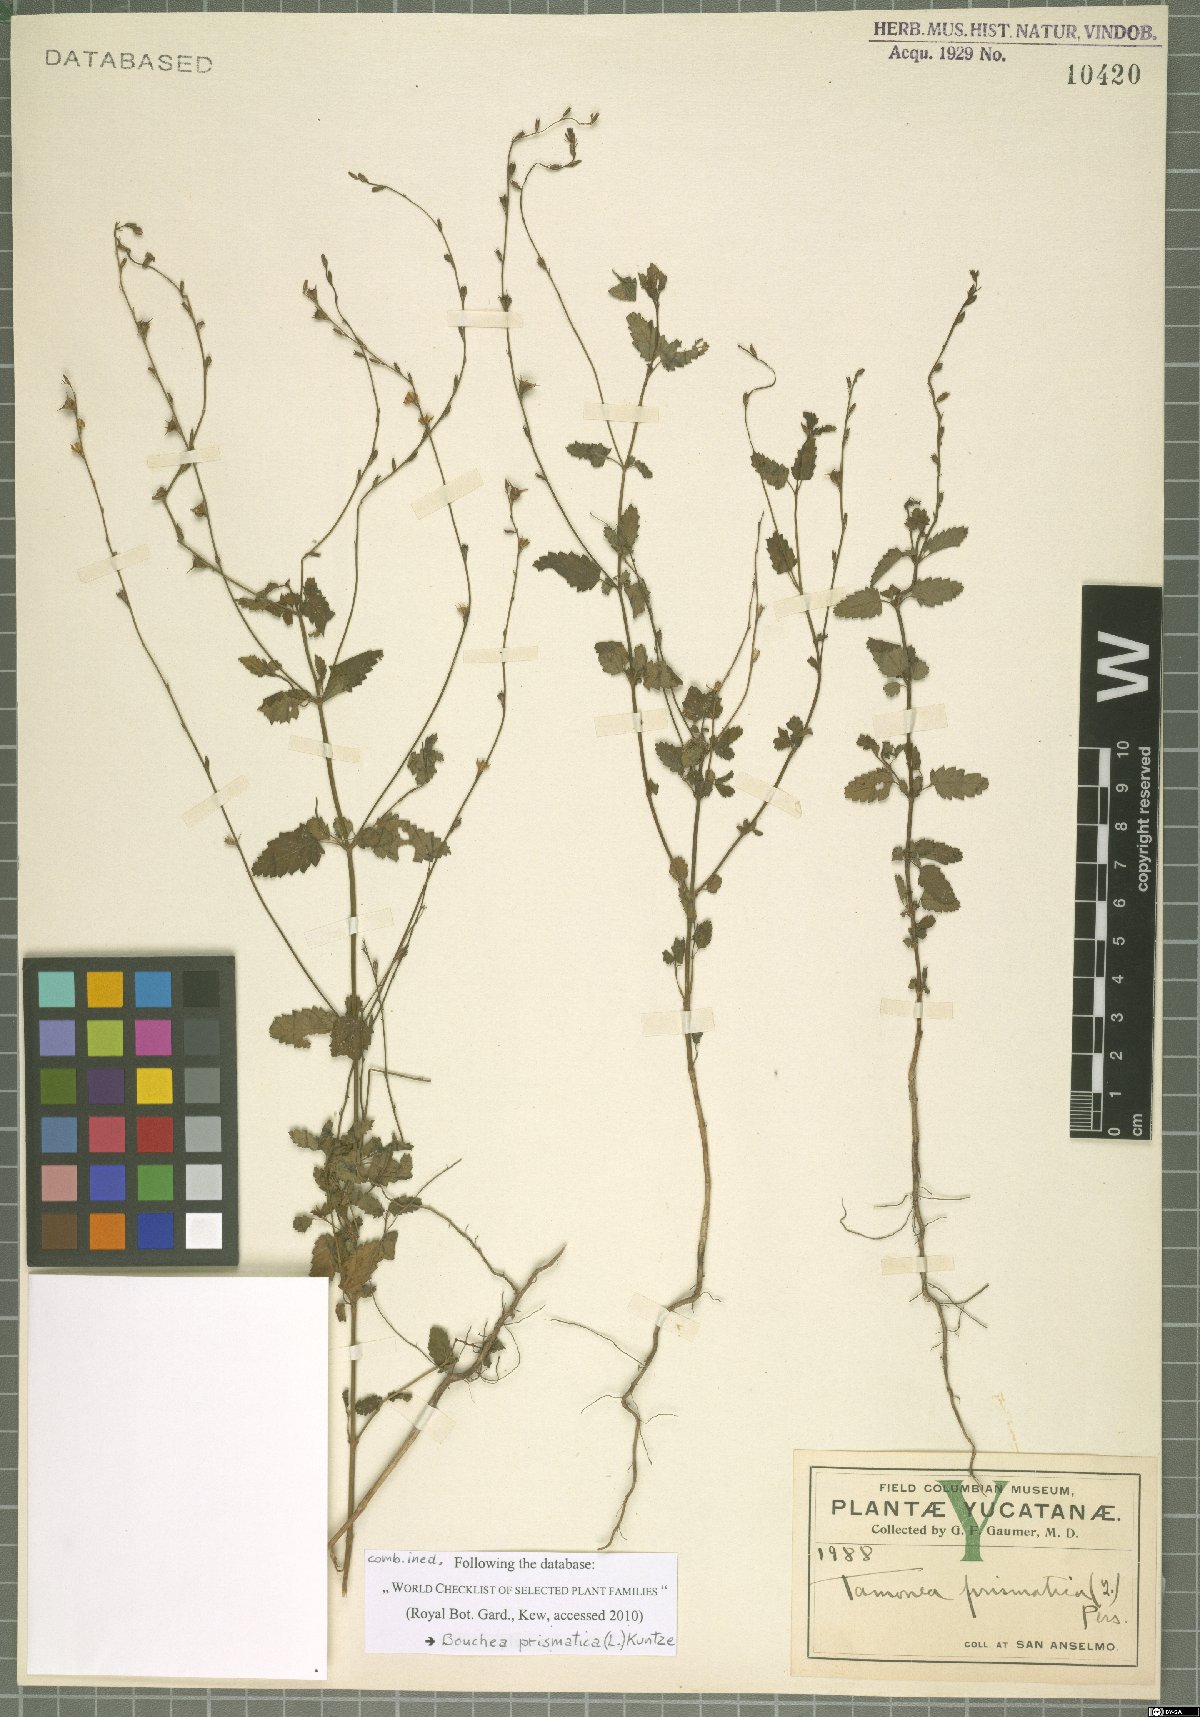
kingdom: Plantae
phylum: Tracheophyta
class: Magnoliopsida
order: Lamiales
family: Verbenaceae
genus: Bouchea
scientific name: Bouchea prismatica
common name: Vervine
